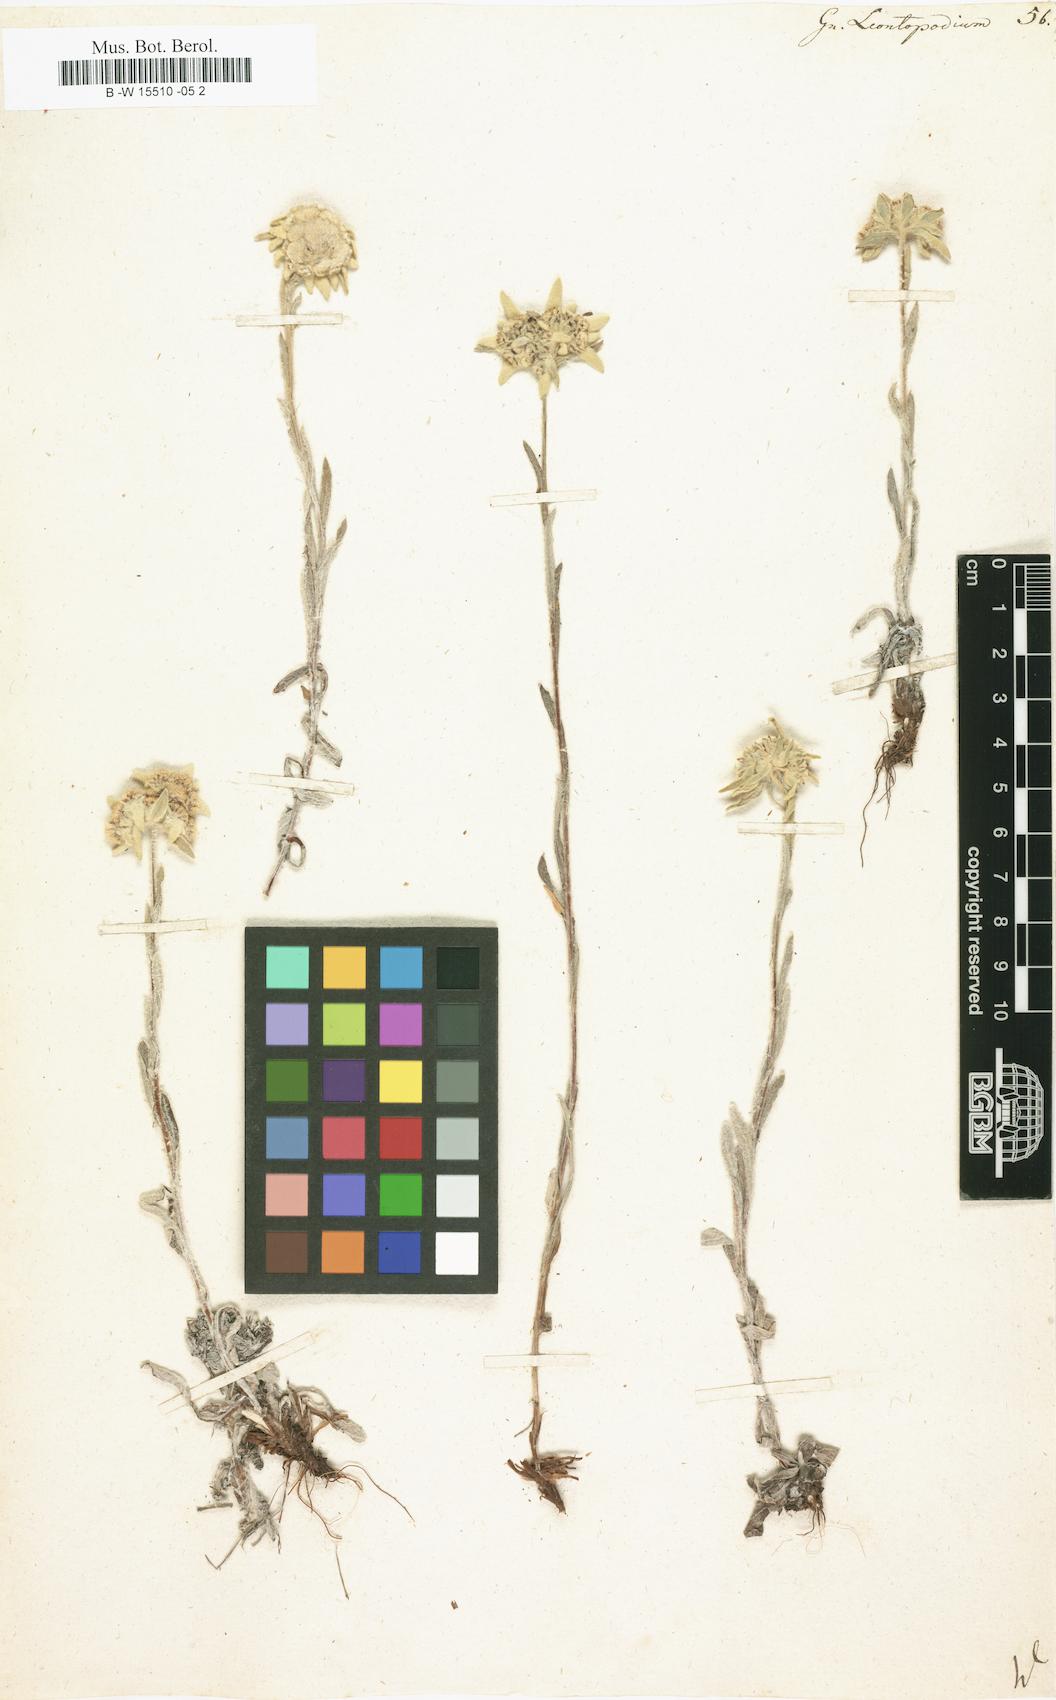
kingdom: Plantae
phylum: Tracheophyta
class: Magnoliopsida
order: Asterales
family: Asteraceae
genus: Gnaphalium
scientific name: Gnaphalium leontopodium
